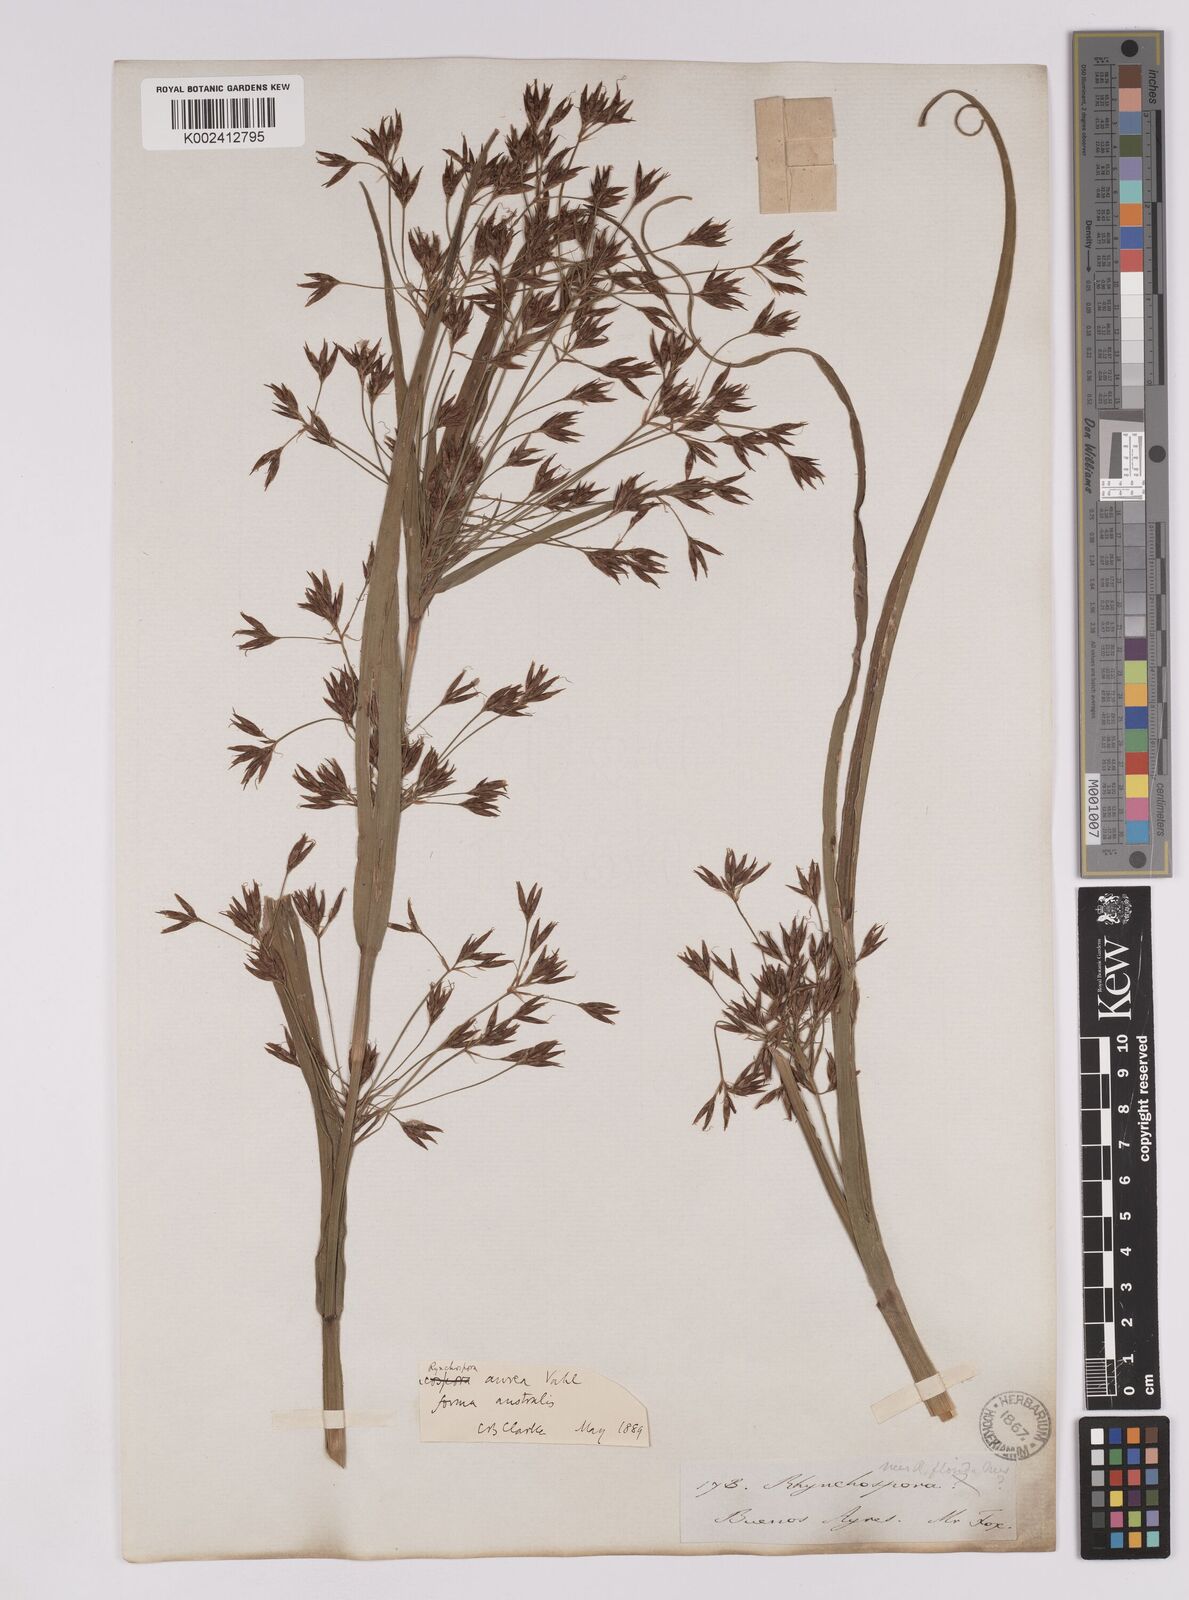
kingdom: Plantae
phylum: Tracheophyta
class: Liliopsida
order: Poales
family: Cyperaceae
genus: Rhynchospora
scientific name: Rhynchospora corymbosa
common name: Golden beak sedge
